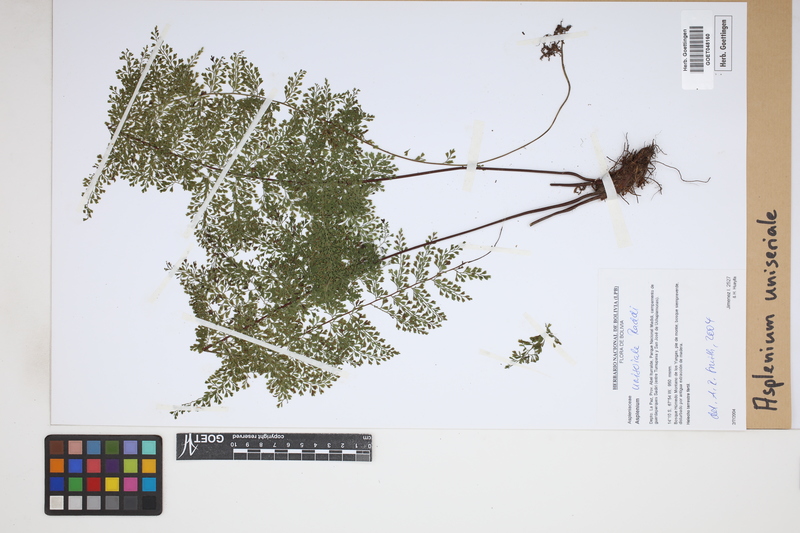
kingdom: Plantae
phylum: Tracheophyta
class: Polypodiopsida
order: Polypodiales
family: Aspleniaceae
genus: Asplenium
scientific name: Asplenium uniseriale
